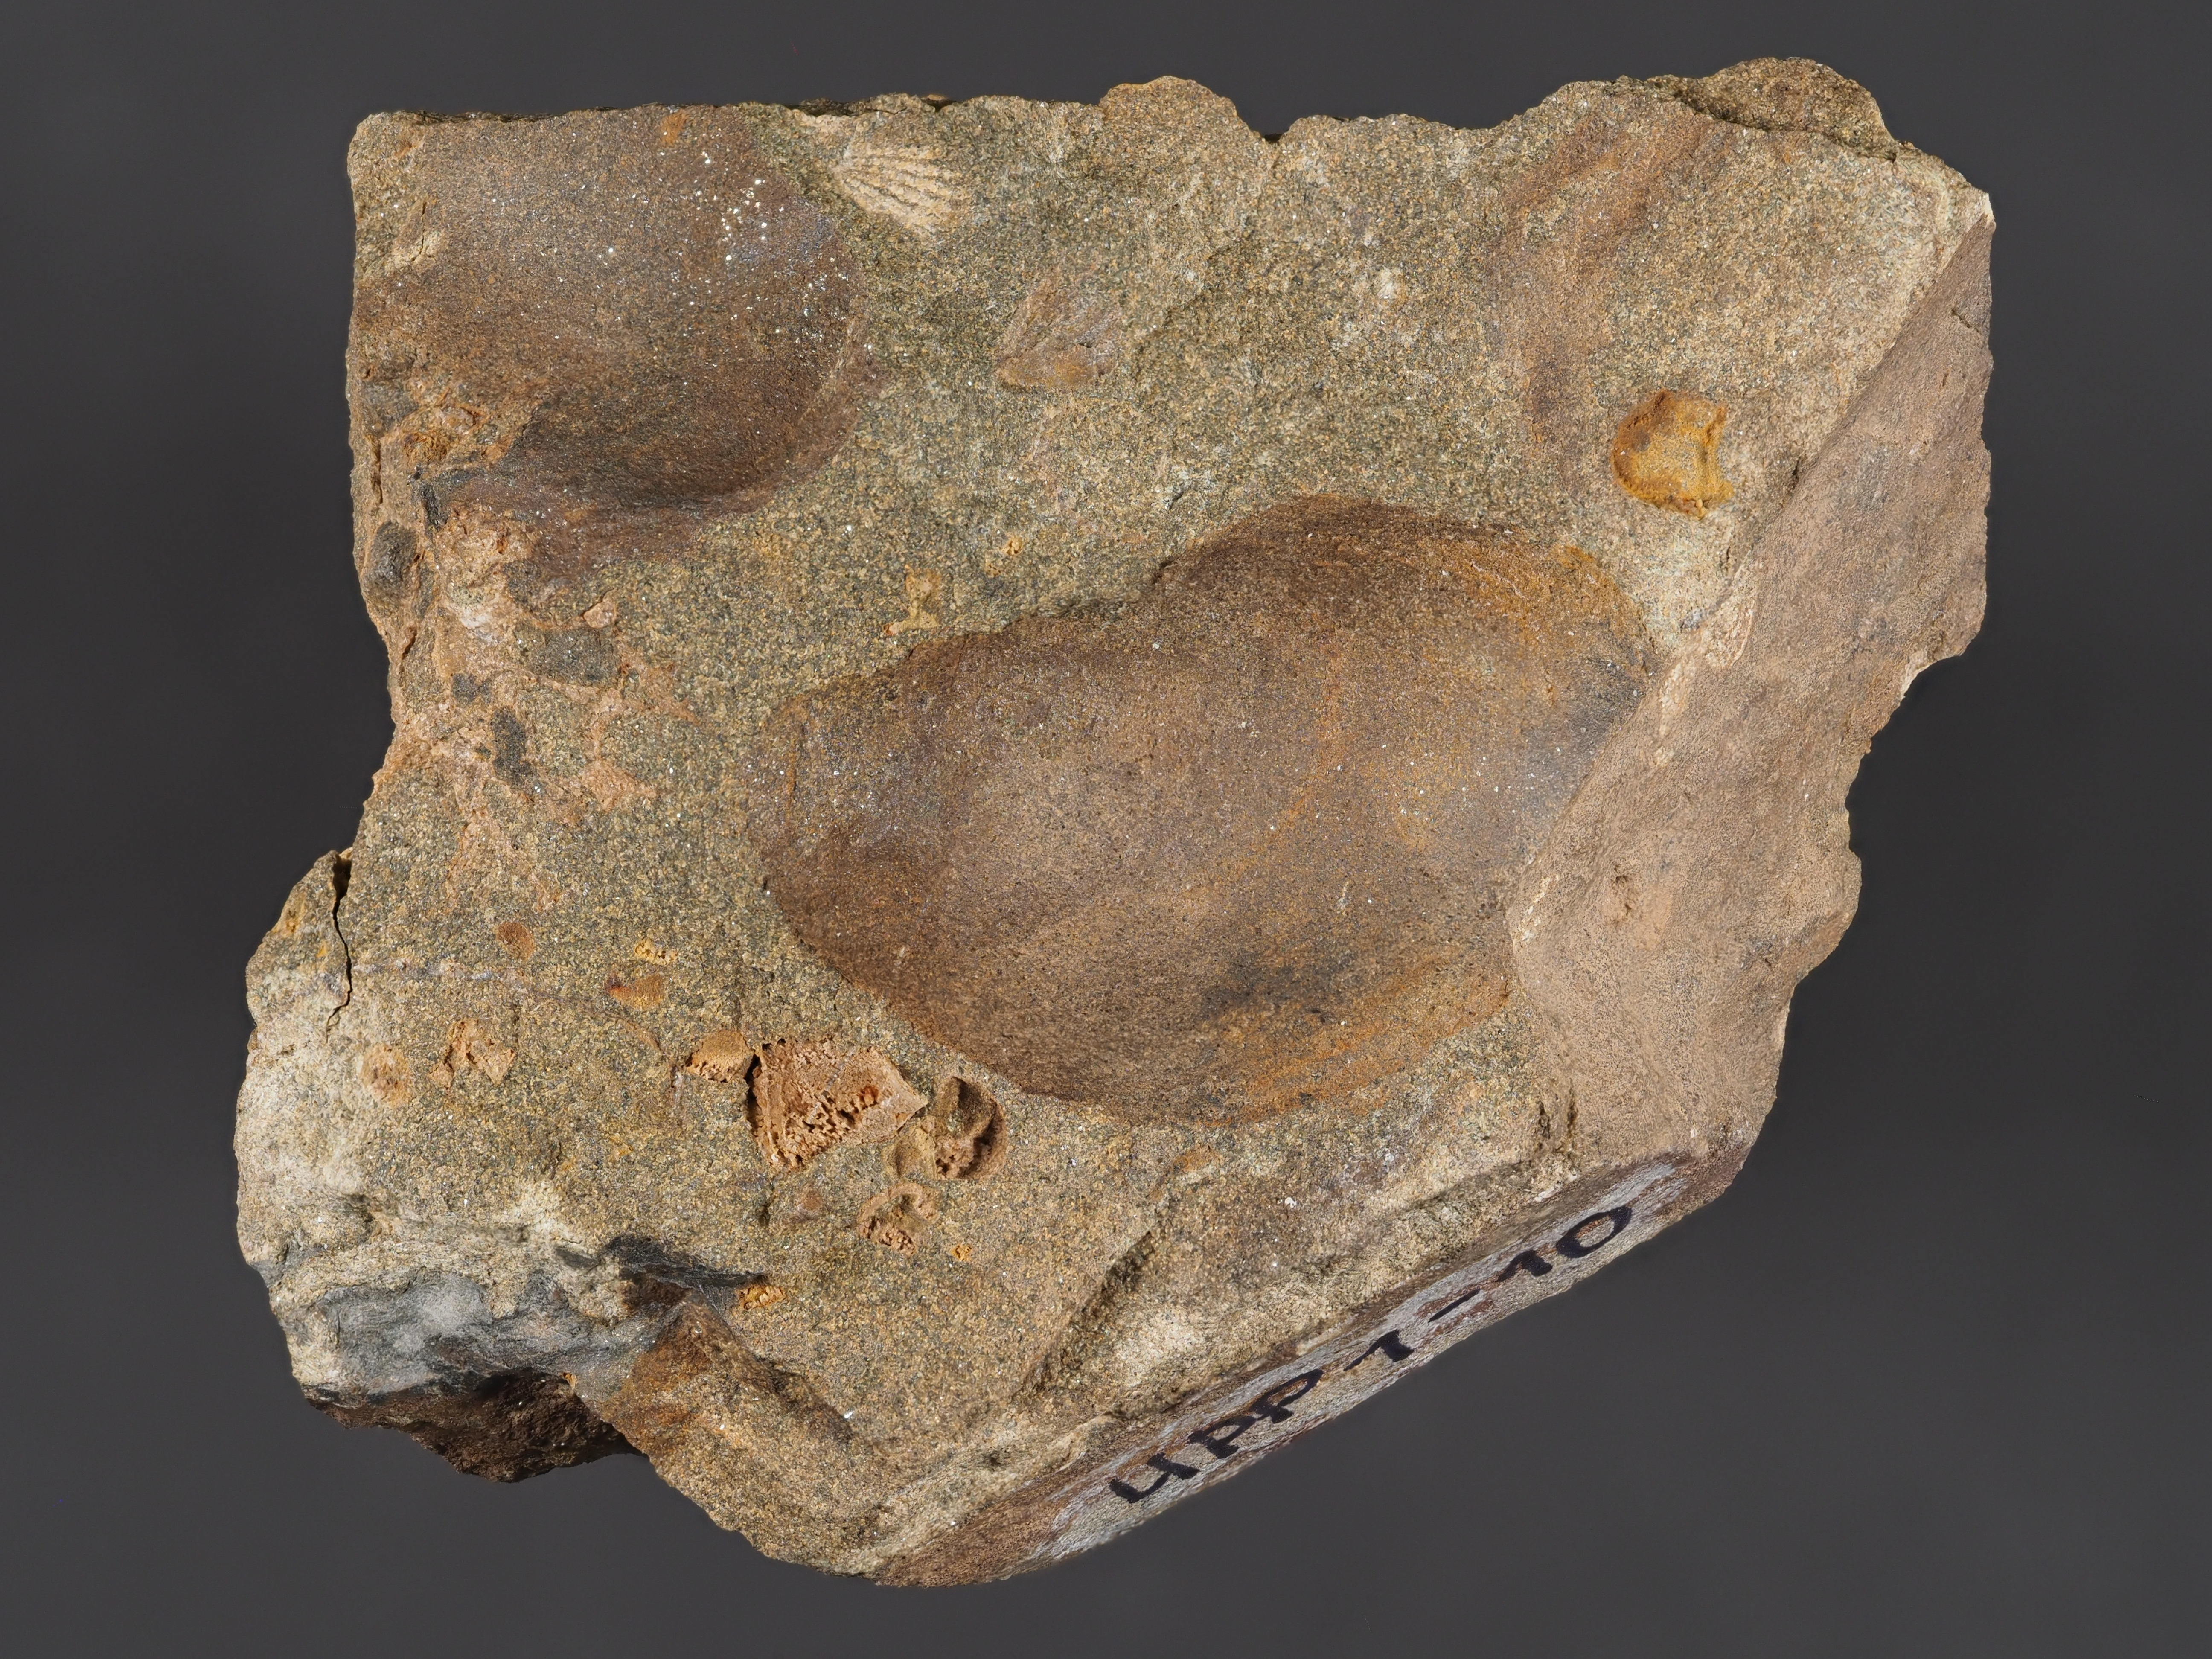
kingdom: Animalia
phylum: Mollusca
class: Bivalvia
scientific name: Bivalvia
